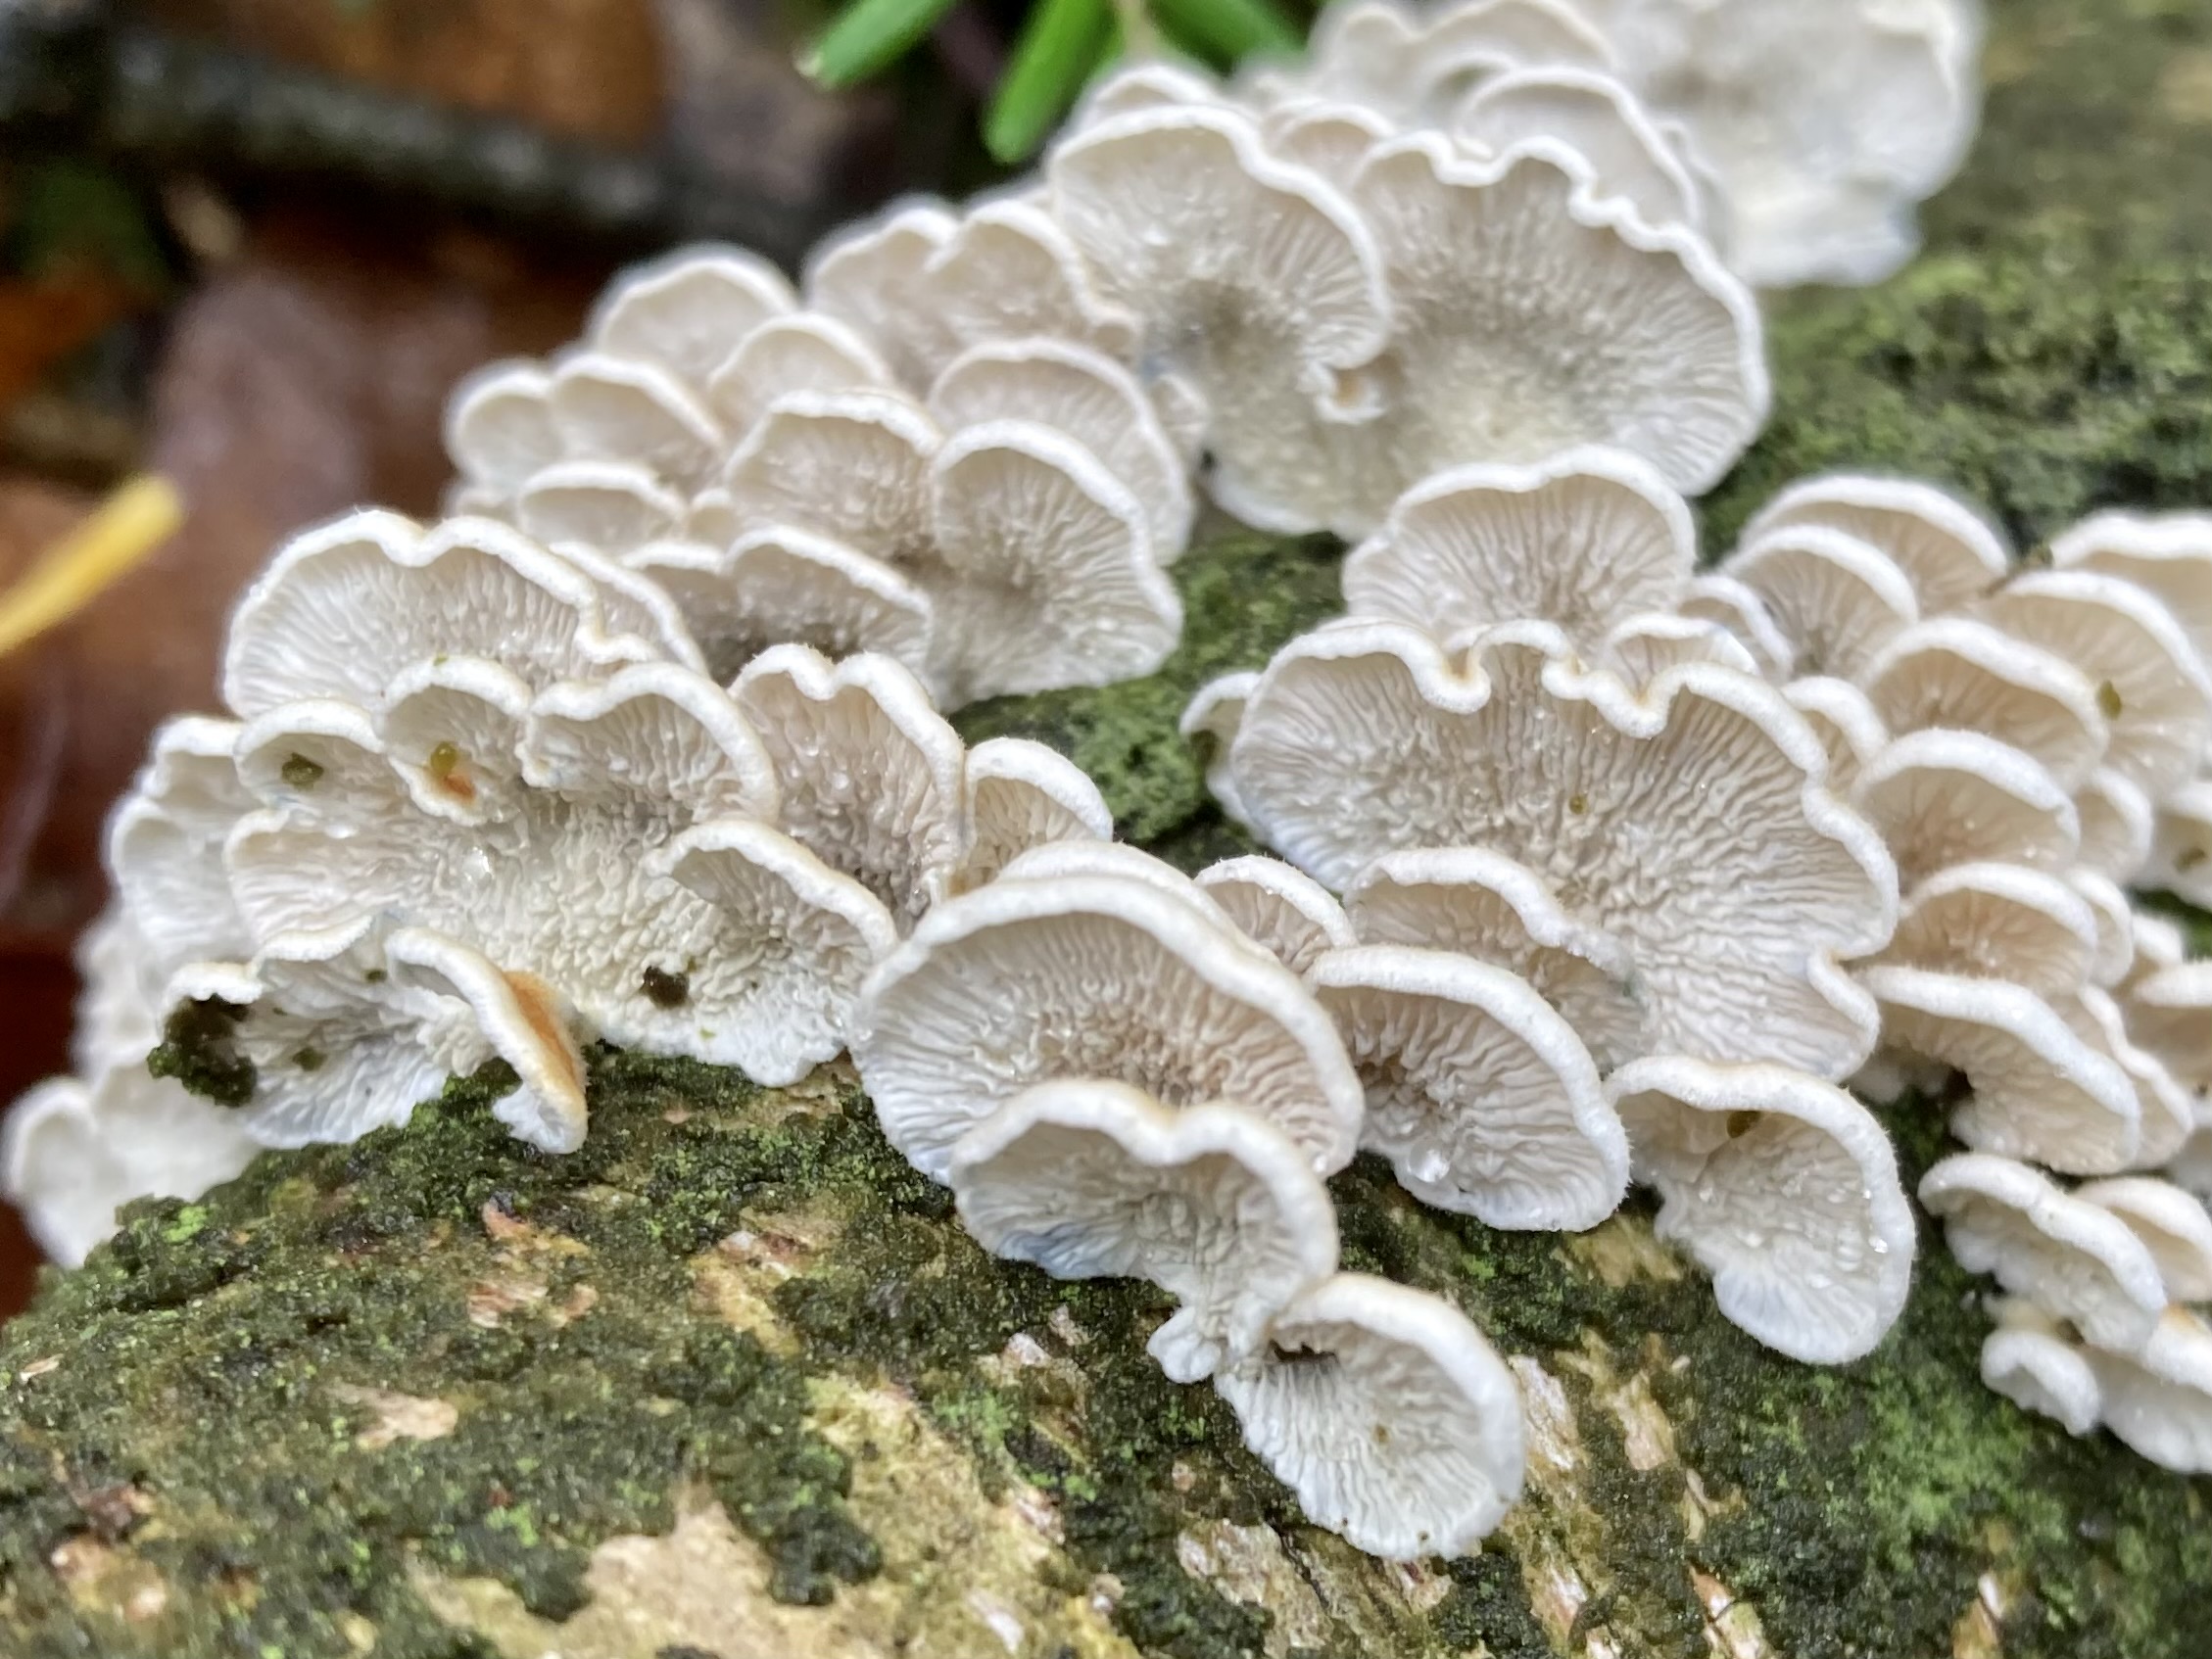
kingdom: Fungi
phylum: Basidiomycota
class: Agaricomycetes
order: Amylocorticiales
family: Amylocorticiaceae
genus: Plicaturopsis
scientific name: Plicaturopsis crispa
